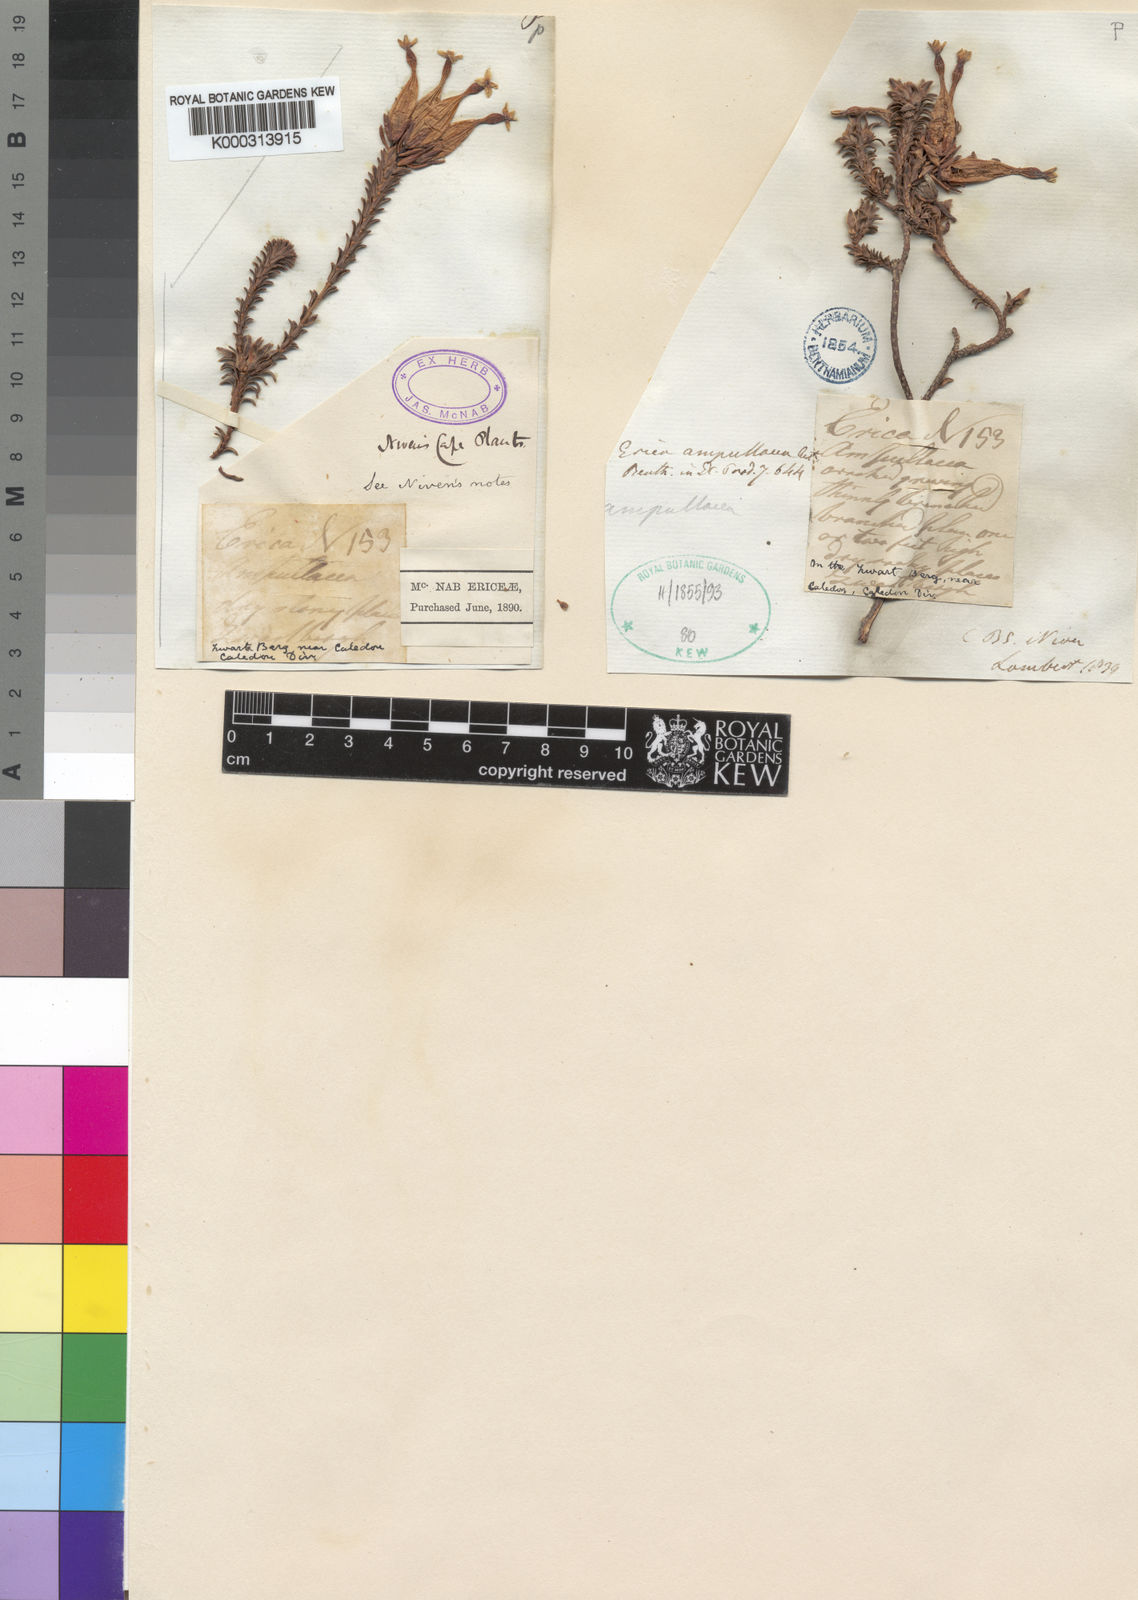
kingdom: Plantae
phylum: Tracheophyta
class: Magnoliopsida
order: Ericales
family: Ericaceae
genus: Erica
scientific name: Erica
